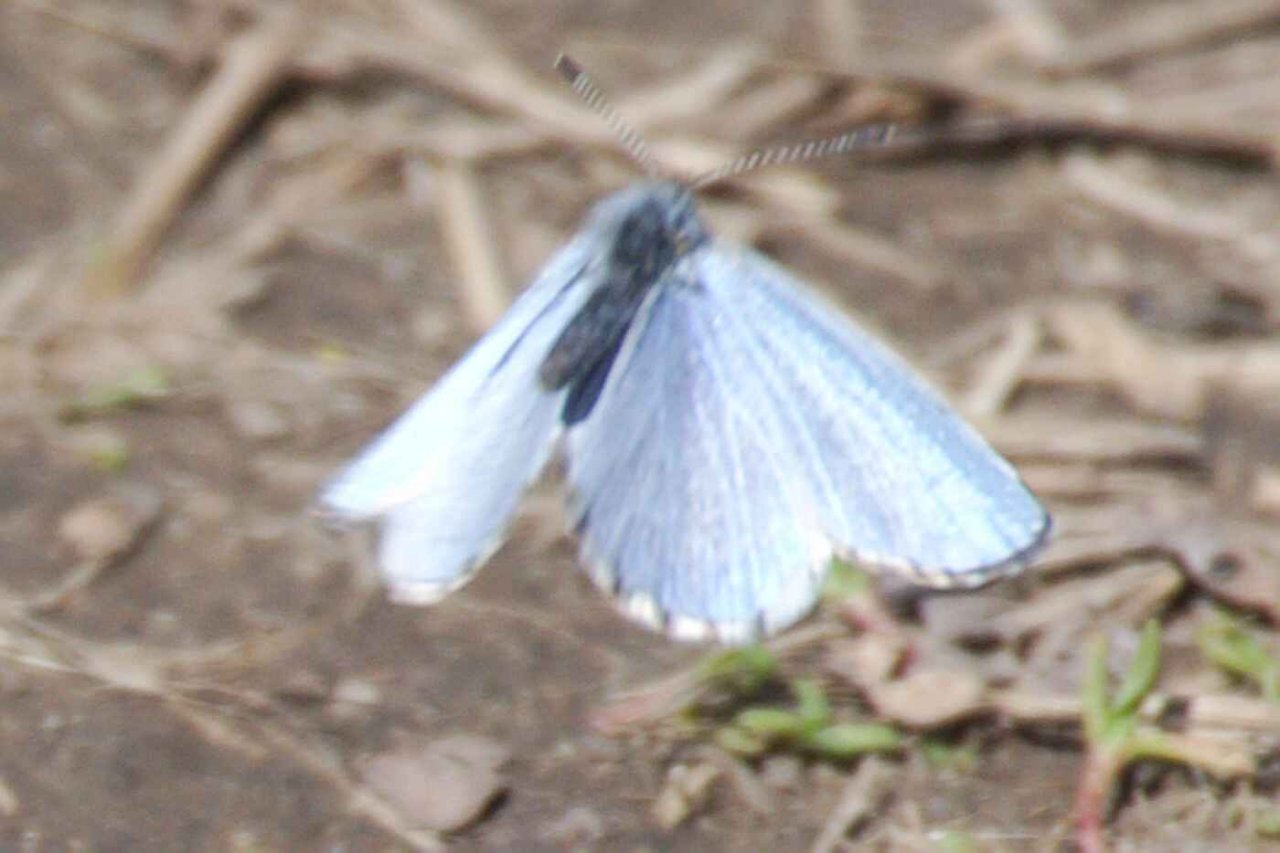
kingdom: Animalia
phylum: Arthropoda
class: Insecta
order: Lepidoptera
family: Lycaenidae
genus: Celastrina
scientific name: Celastrina lucia
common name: Northern Spring Azure
